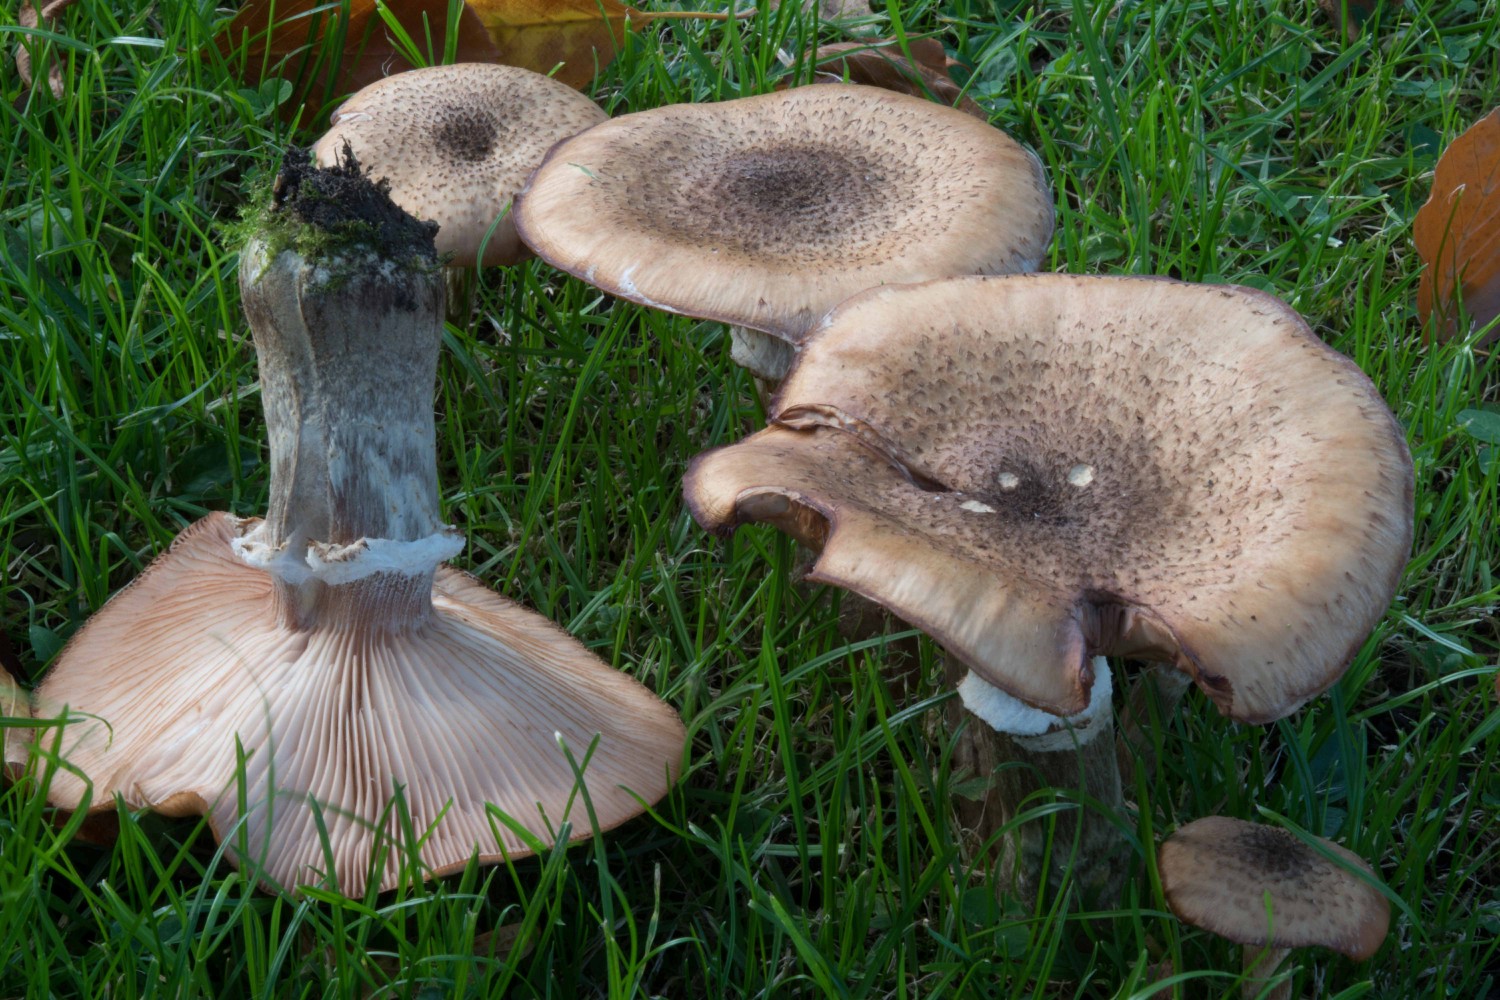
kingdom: Fungi
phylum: Basidiomycota
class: Agaricomycetes
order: Agaricales
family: Physalacriaceae
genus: Armillaria
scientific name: Armillaria lutea
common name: køllestokket honningsvamp
